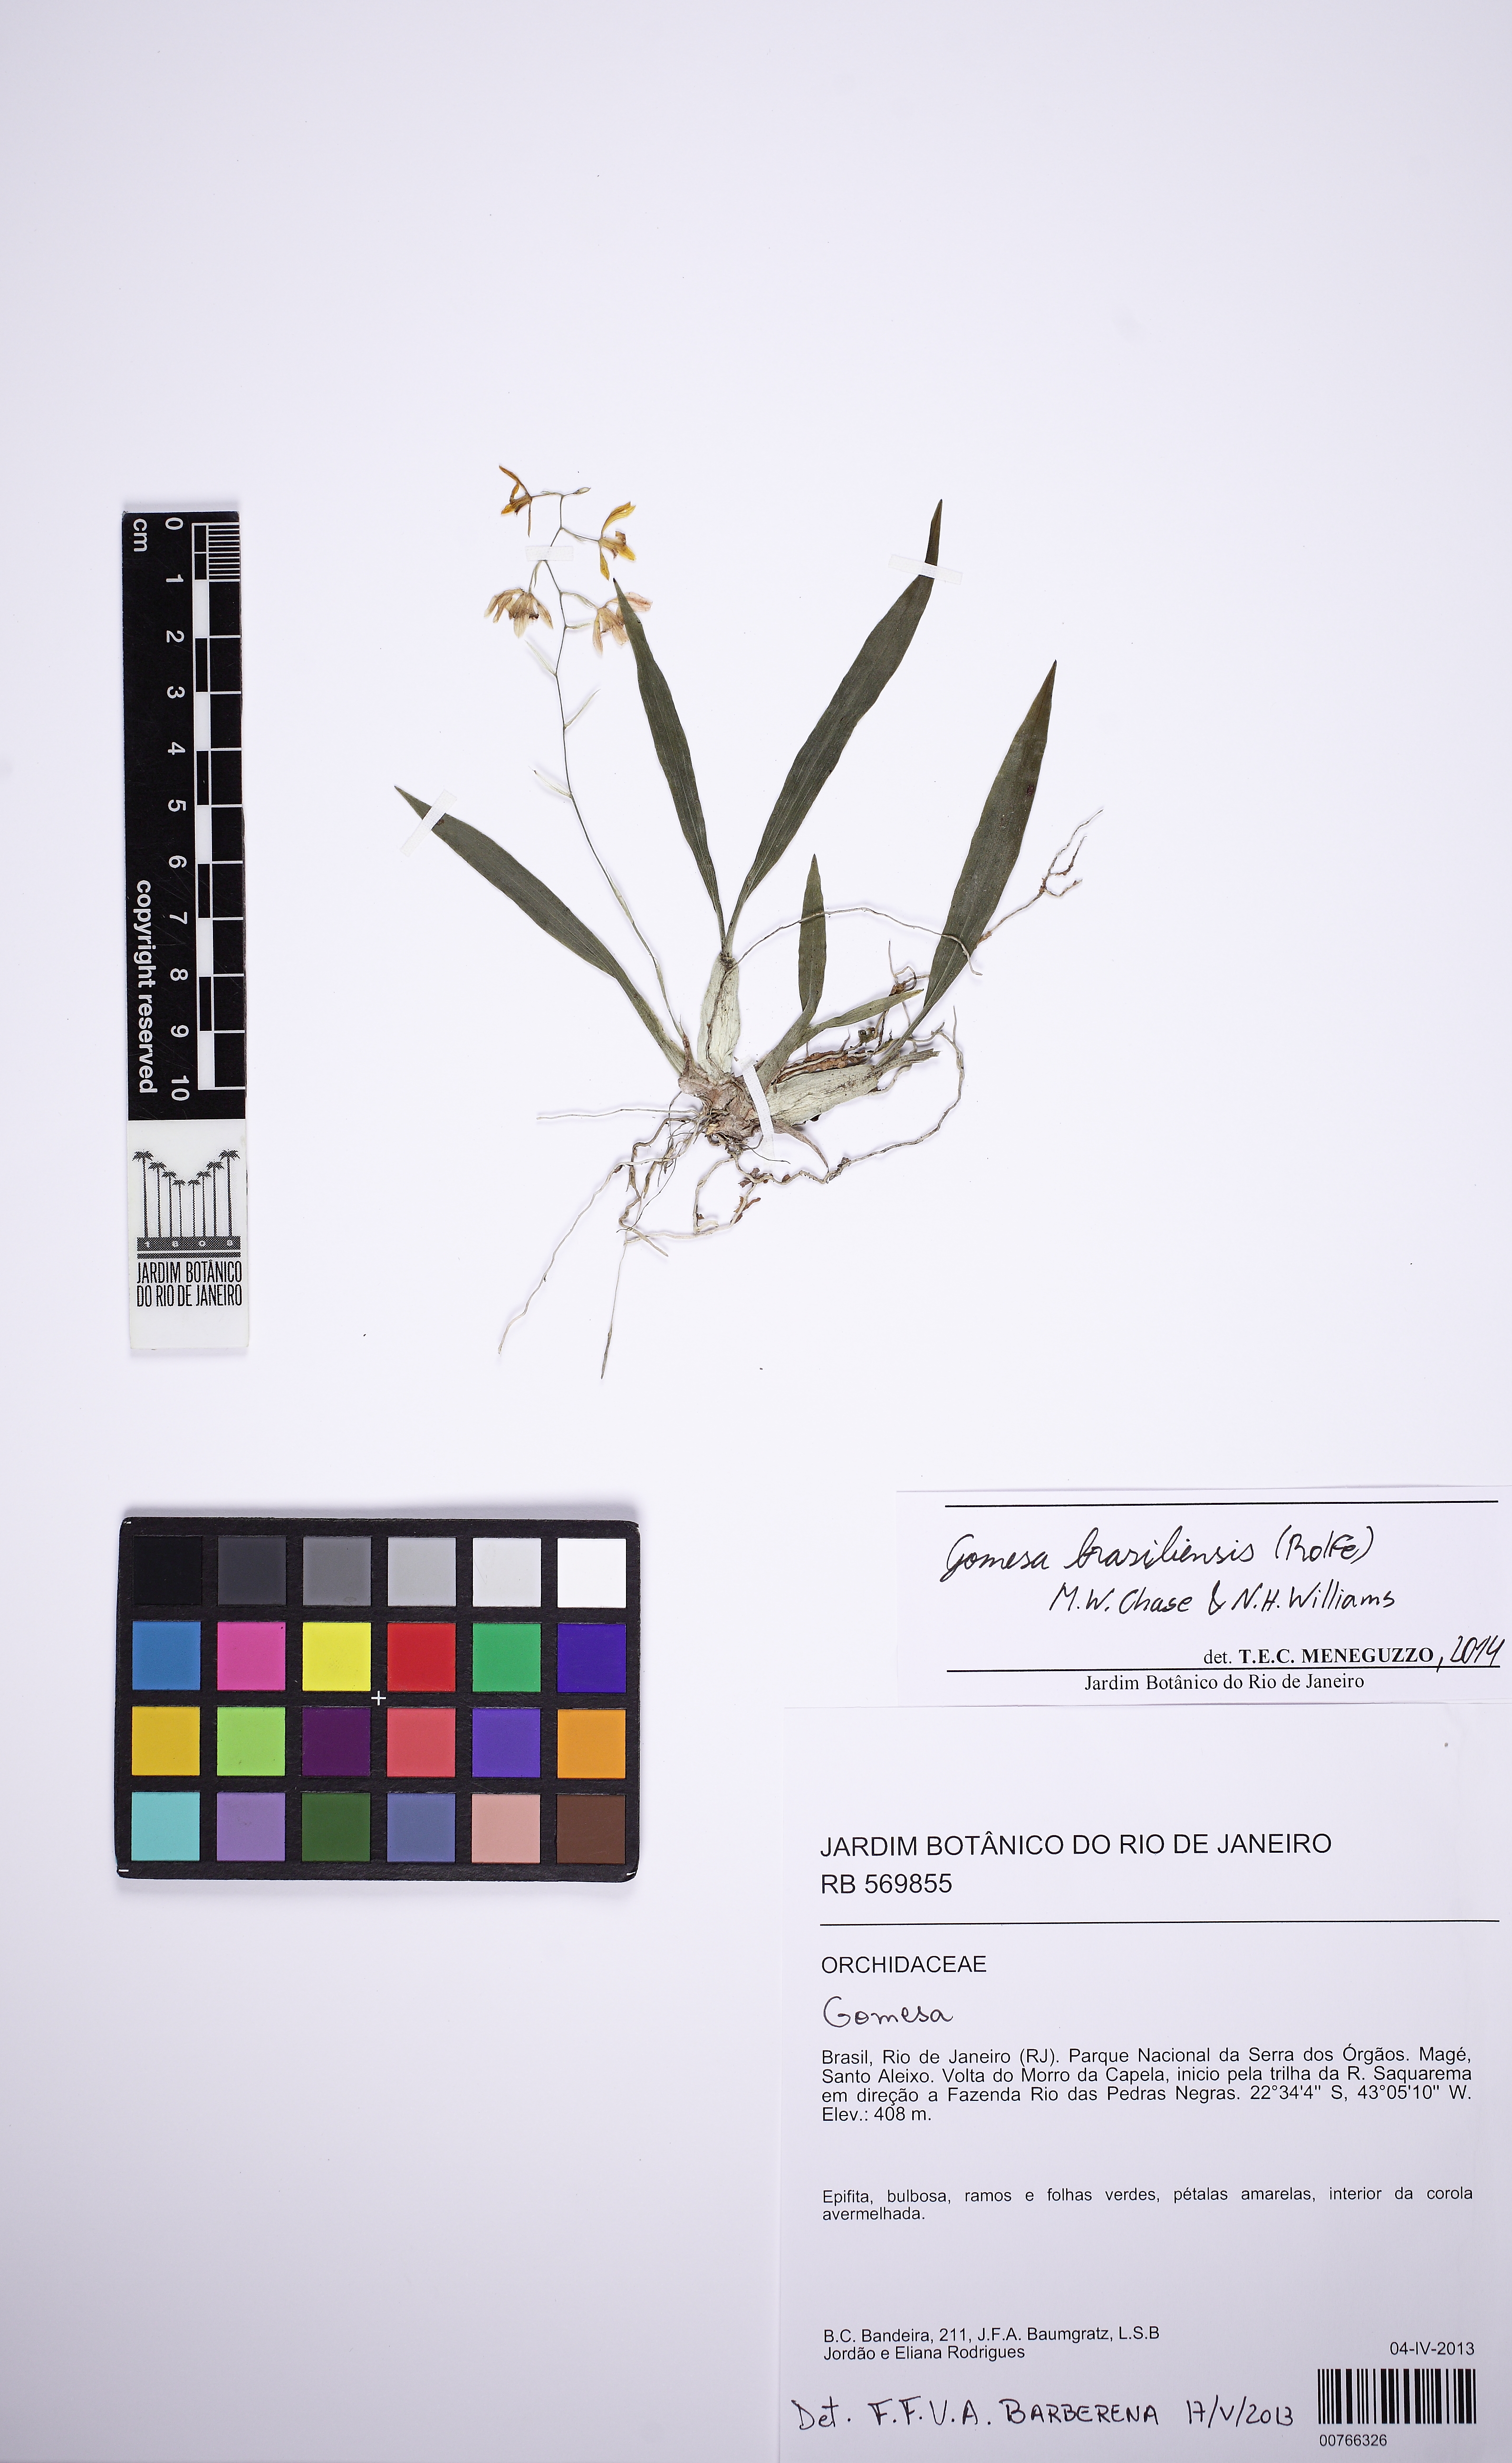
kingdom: Plantae
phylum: Tracheophyta
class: Liliopsida
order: Asparagales
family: Orchidaceae
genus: Gomesa
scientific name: Gomesa laxiflora
